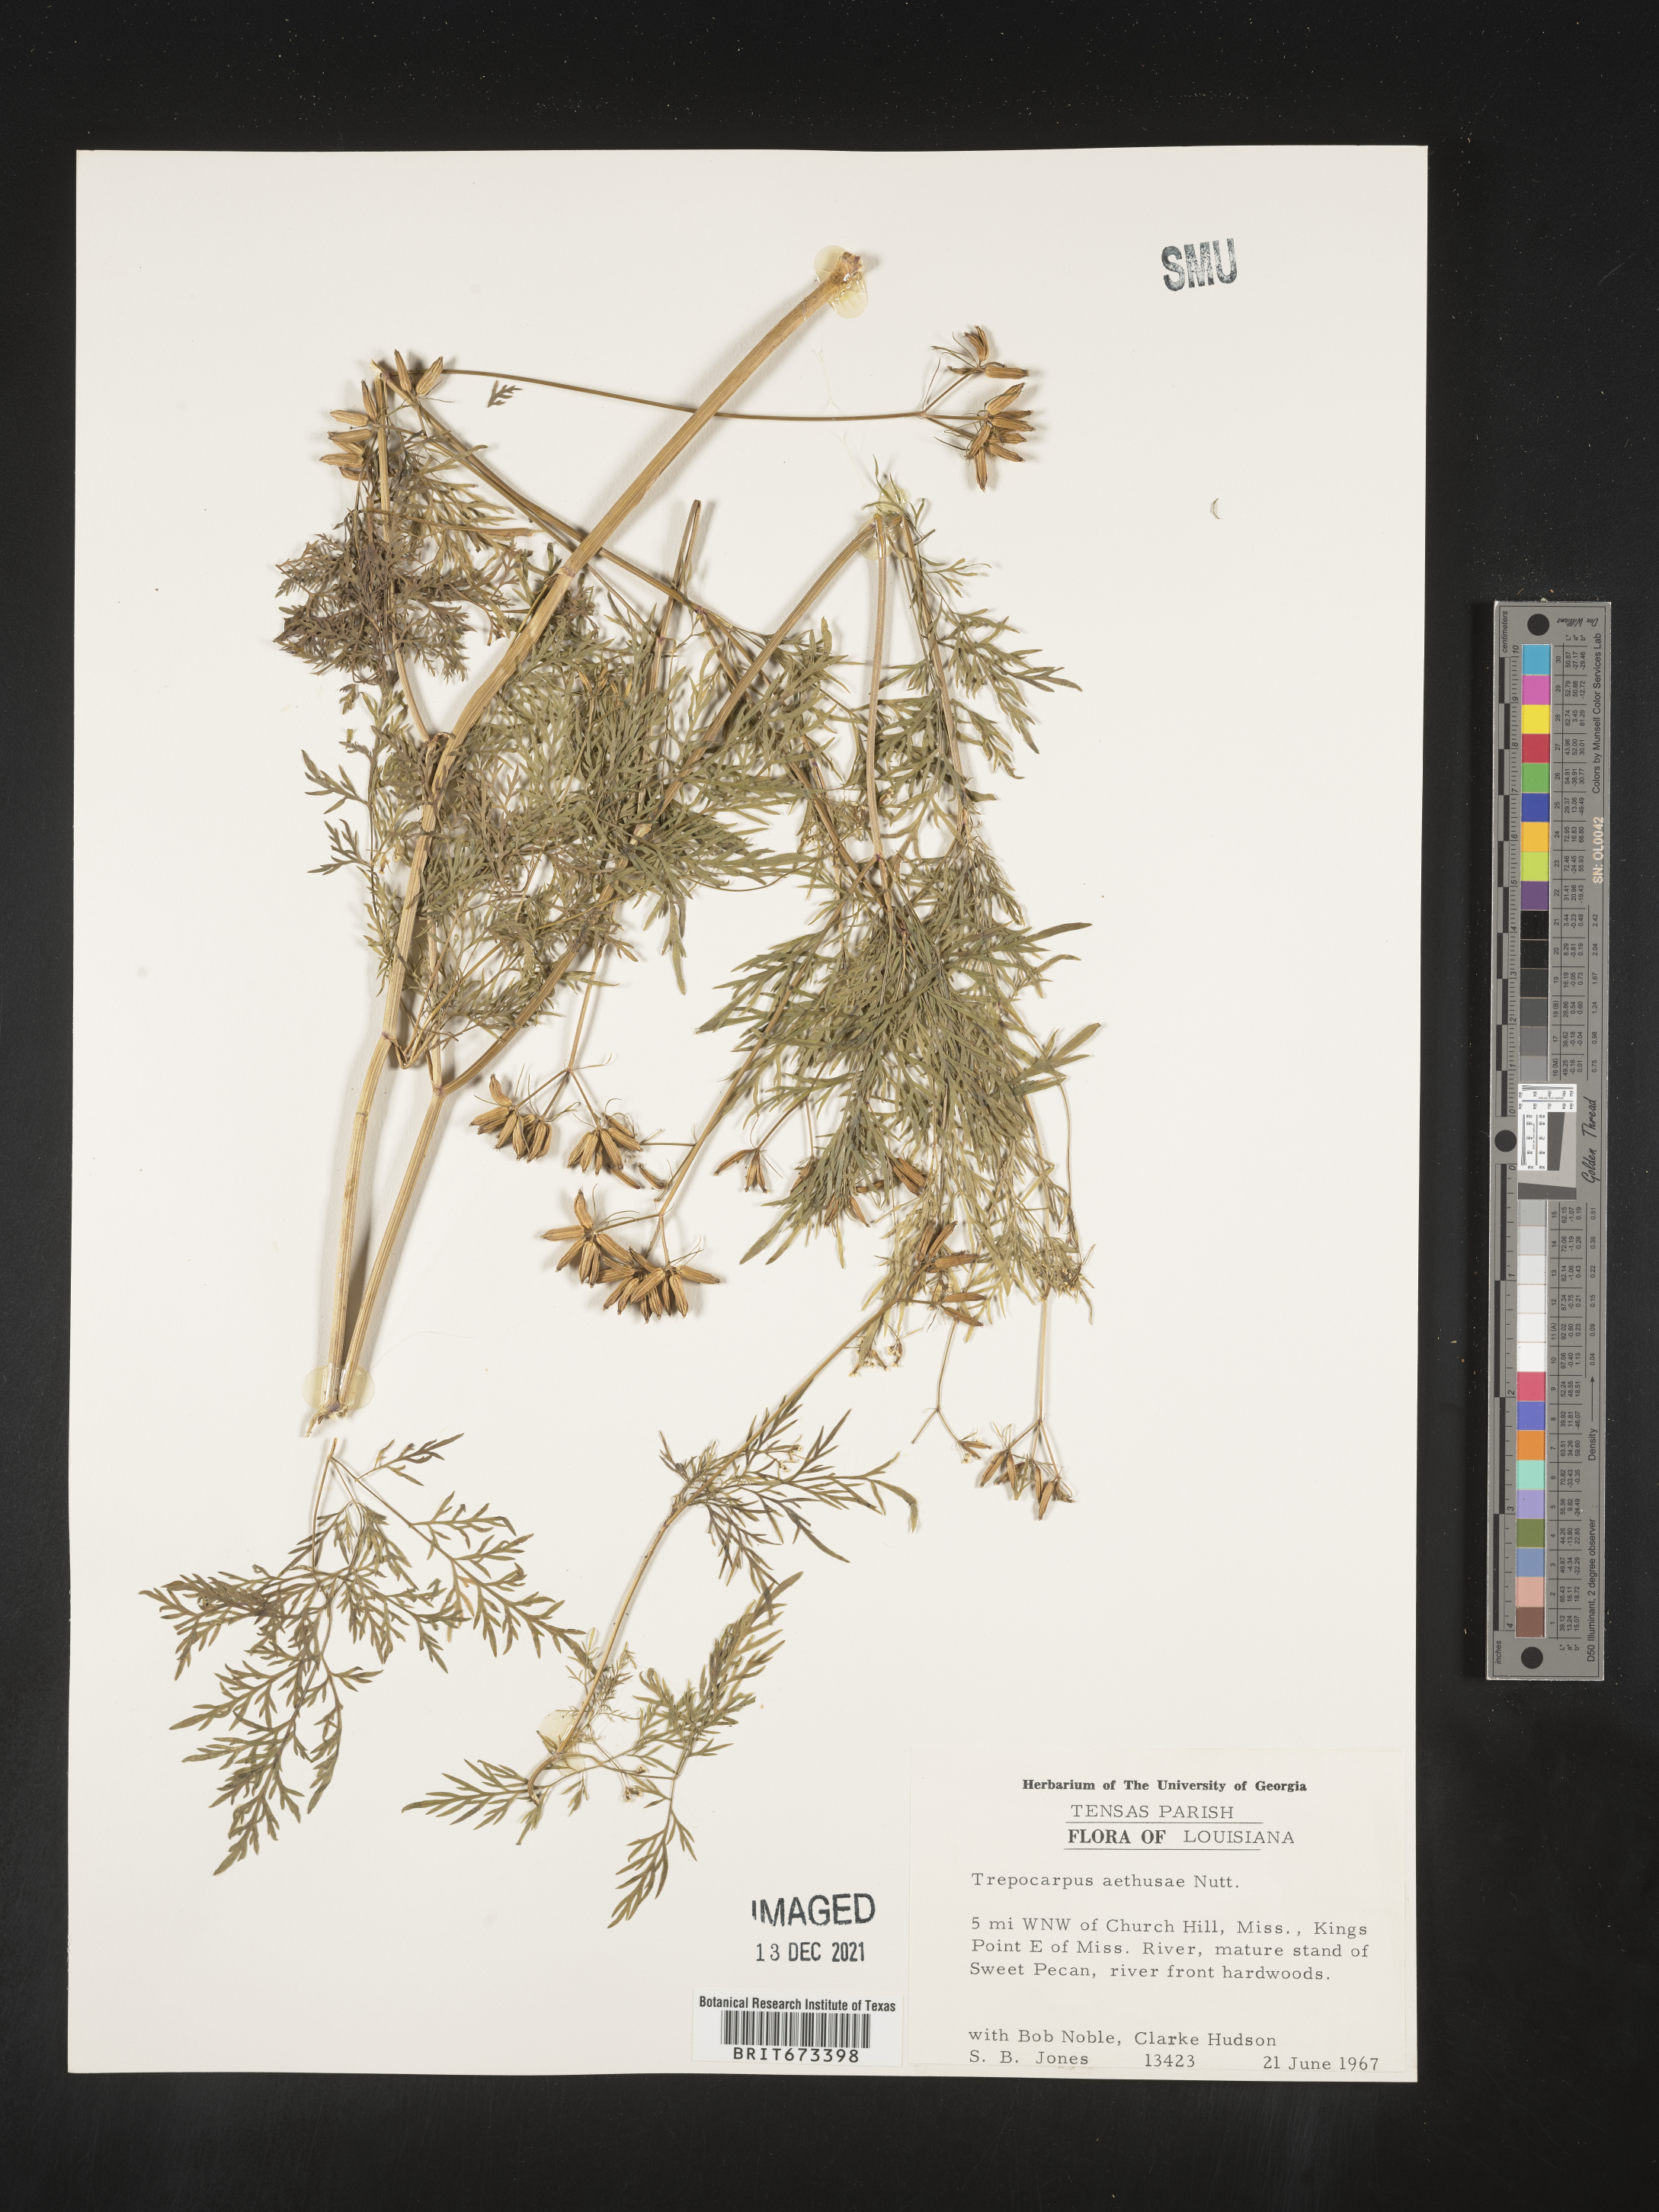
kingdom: Plantae
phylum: Tracheophyta
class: Magnoliopsida
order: Apiales
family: Apiaceae
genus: Trepocarpus
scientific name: Trepocarpus aethusae
